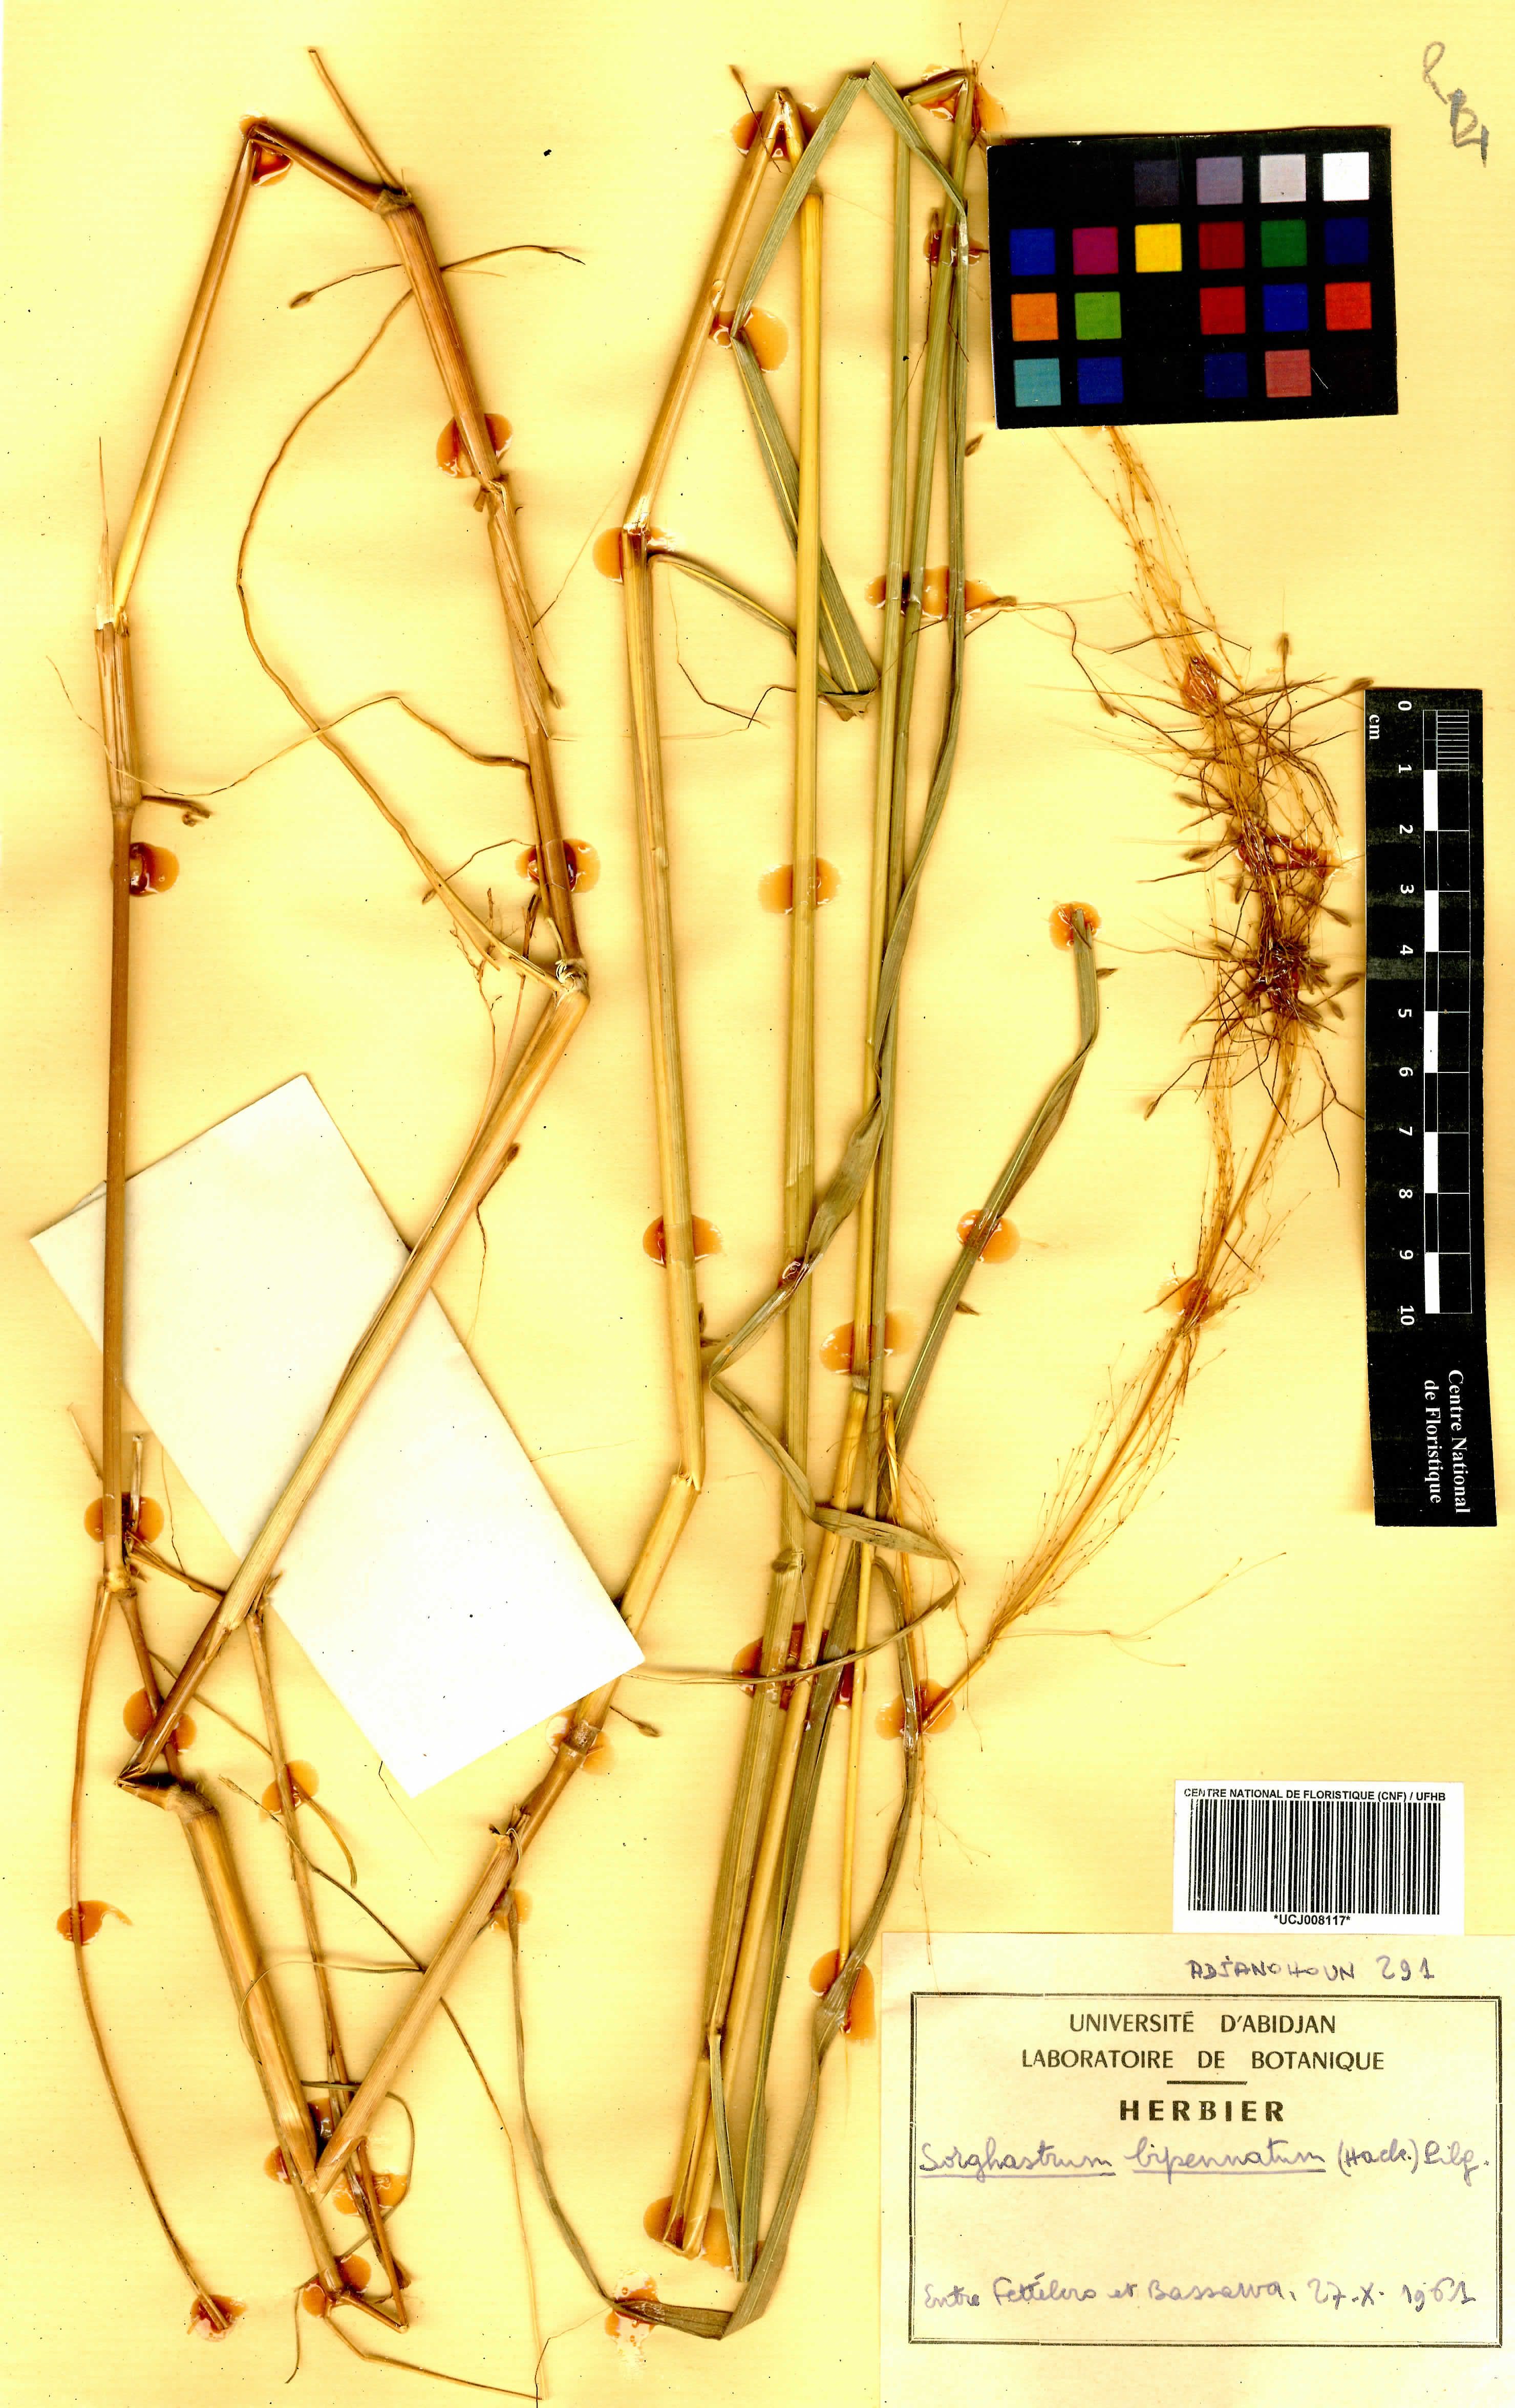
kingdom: Plantae
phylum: Tracheophyta
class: Liliopsida
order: Poales
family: Poaceae
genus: Sorghastrum
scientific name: Sorghastrum incompletum
